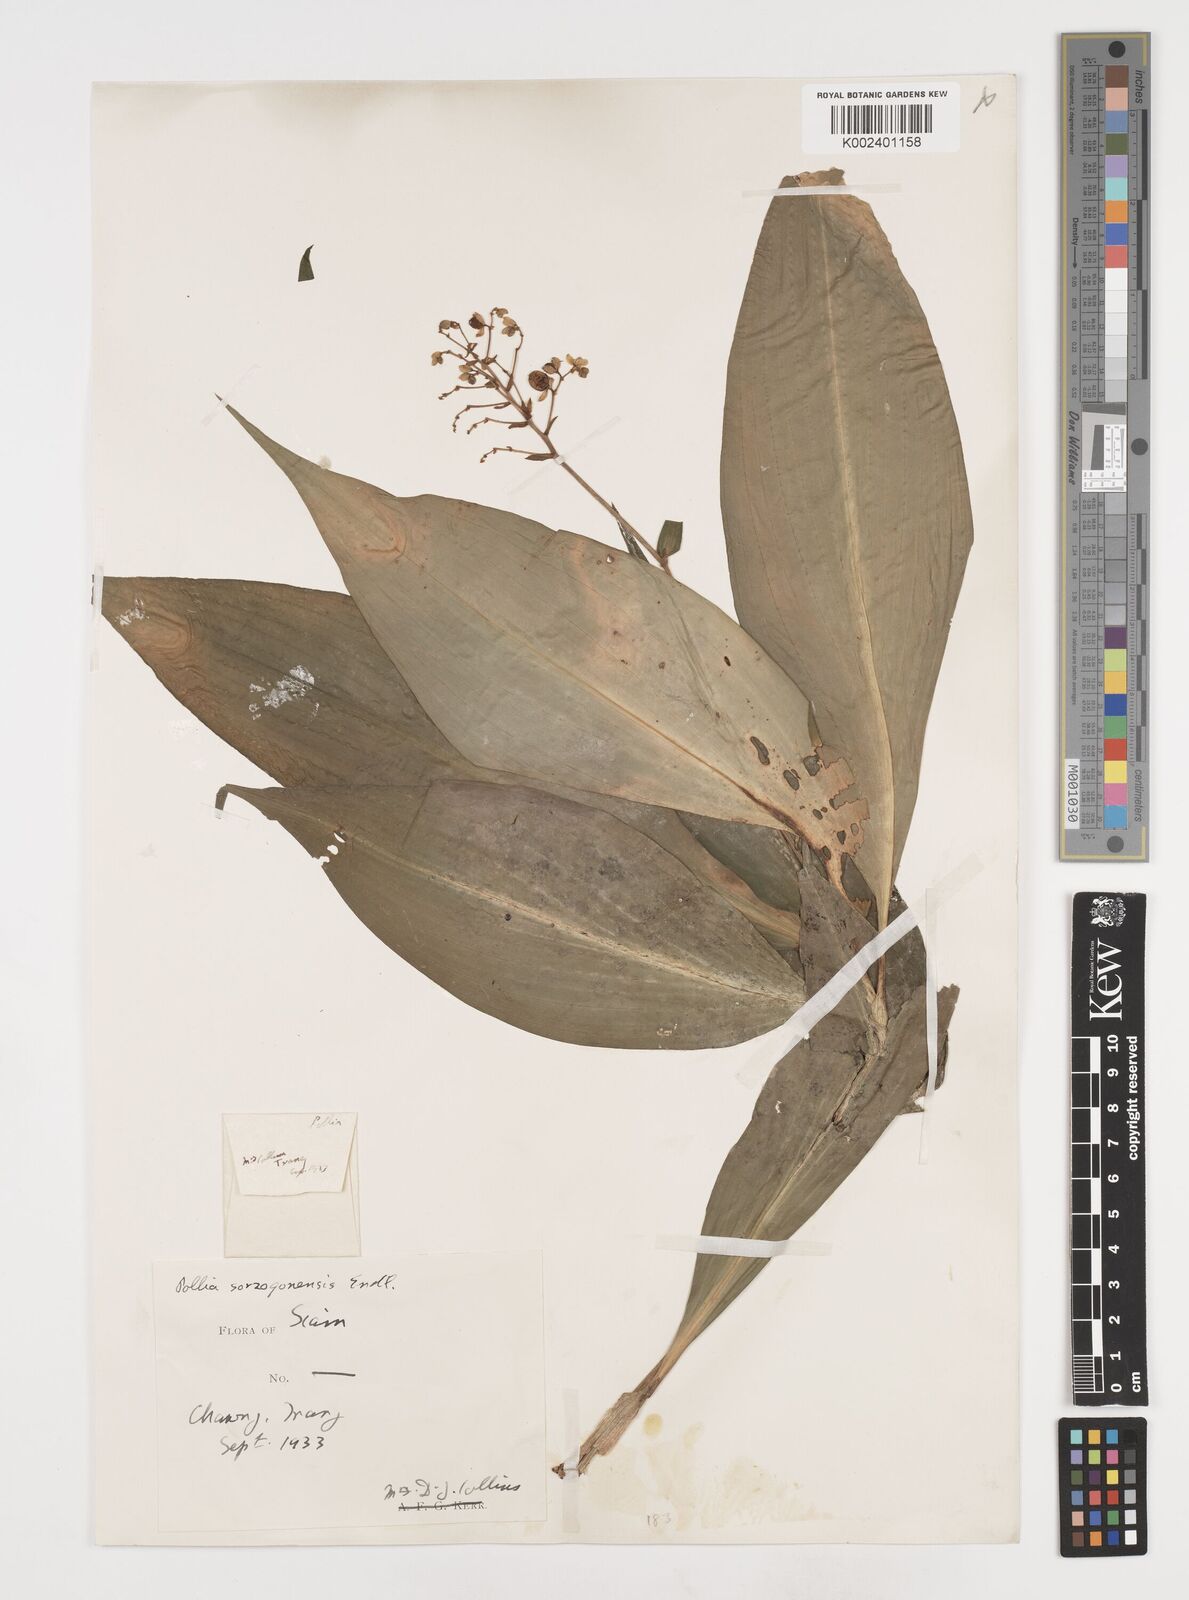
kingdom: Plantae
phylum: Tracheophyta
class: Liliopsida
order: Commelinales
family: Commelinaceae
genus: Pollia
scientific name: Pollia secundiflora
